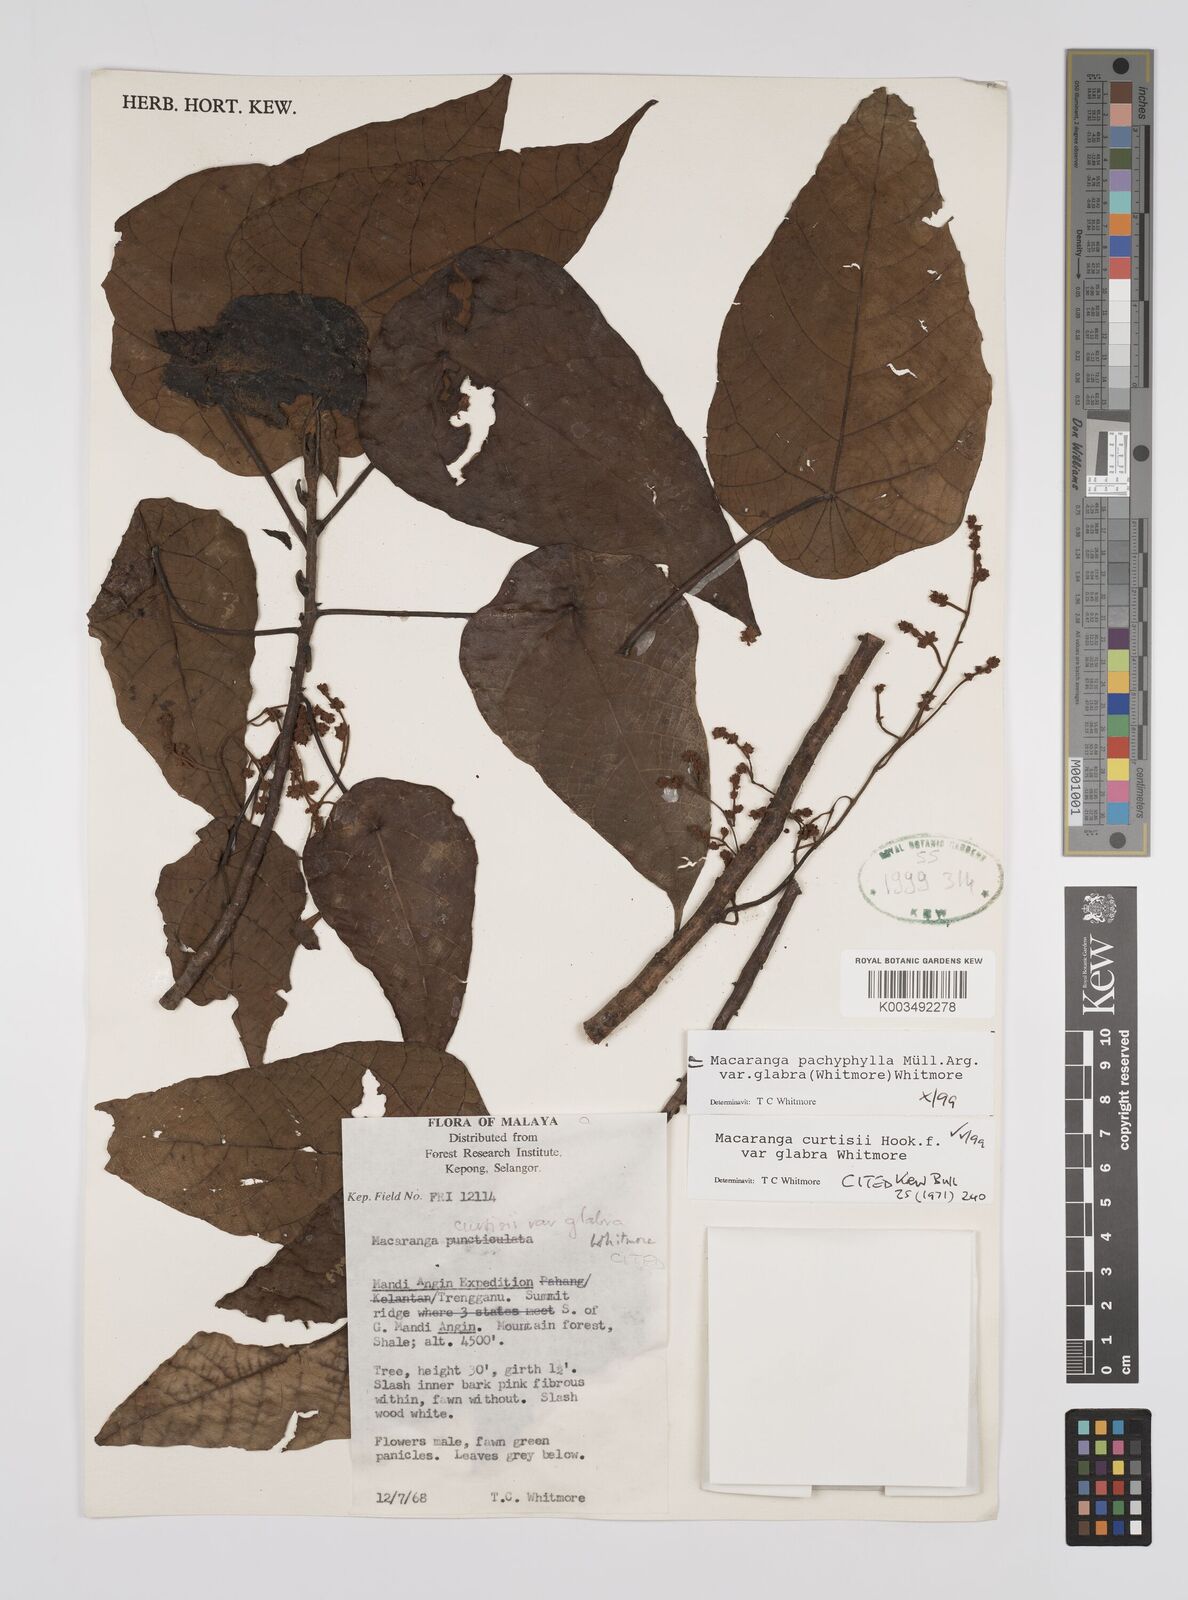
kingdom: Plantae
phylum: Tracheophyta
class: Magnoliopsida
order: Malpighiales
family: Euphorbiaceae
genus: Macaranga
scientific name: Macaranga pachyphylla
